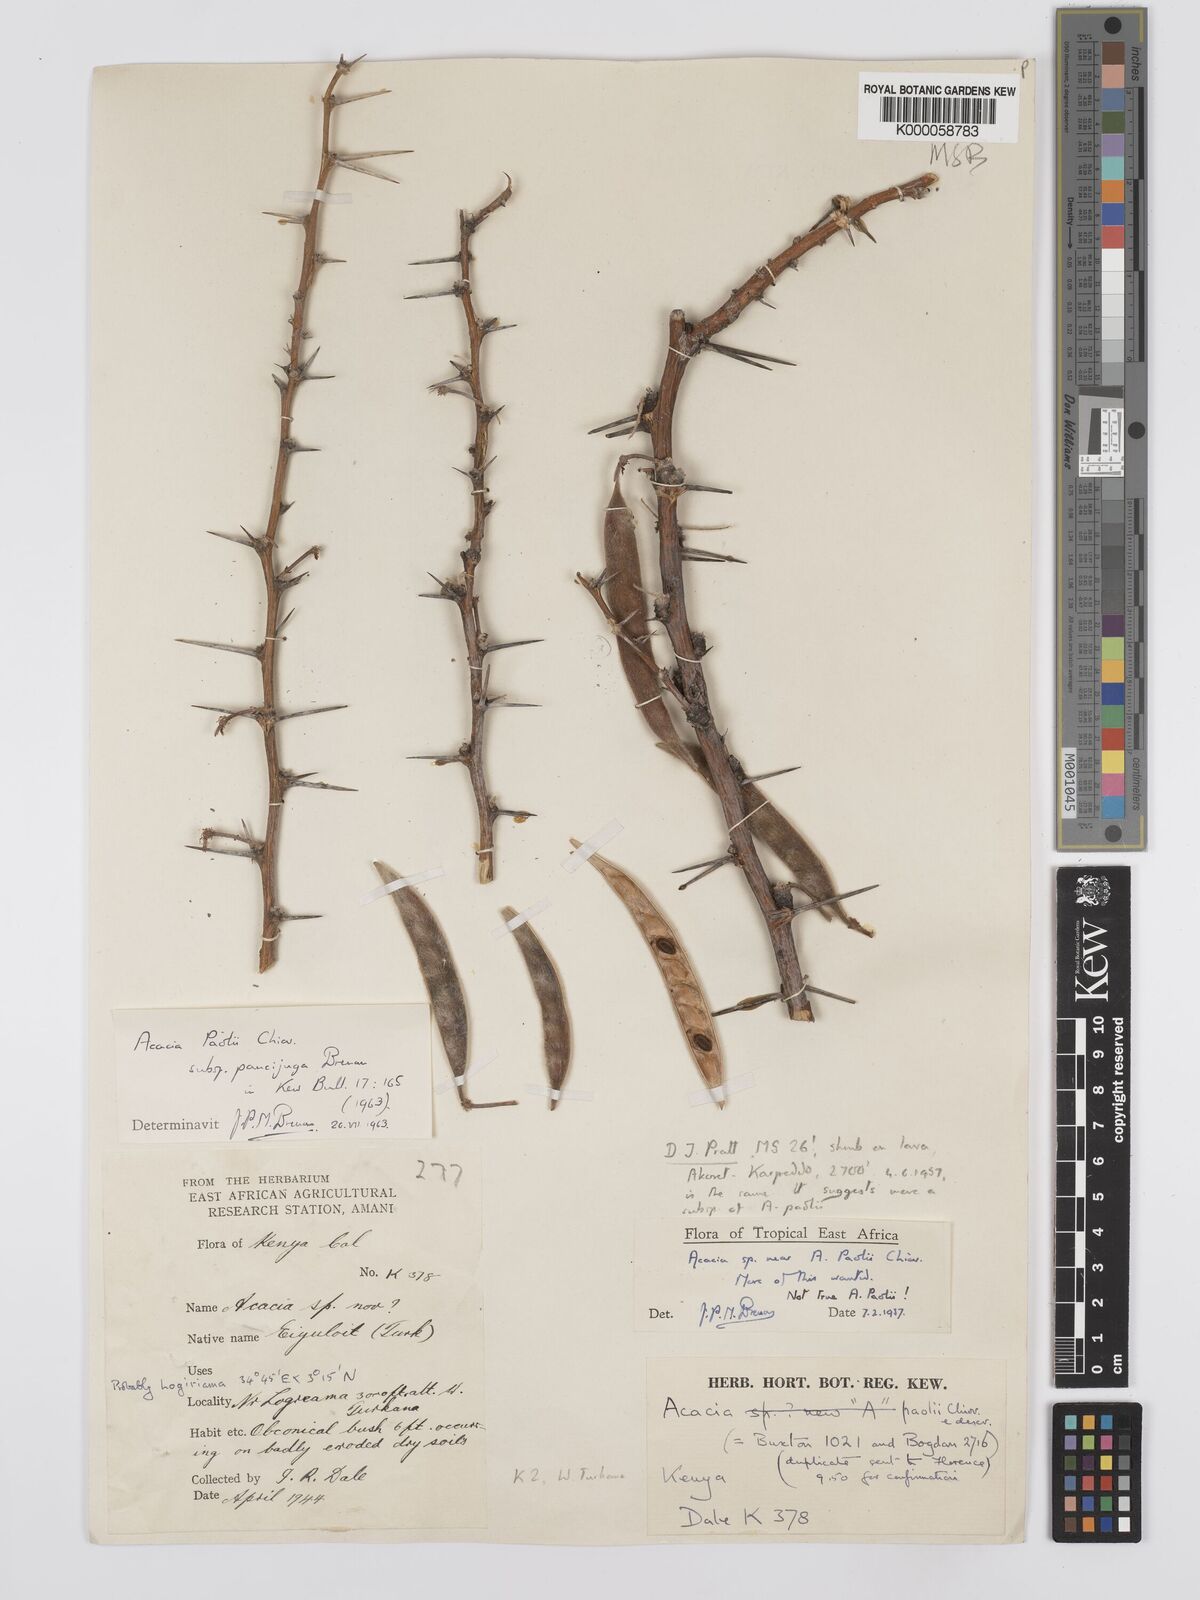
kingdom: Plantae
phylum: Tracheophyta
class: Magnoliopsida
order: Fabales
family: Fabaceae
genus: Vachellia
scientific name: Vachellia paolii
